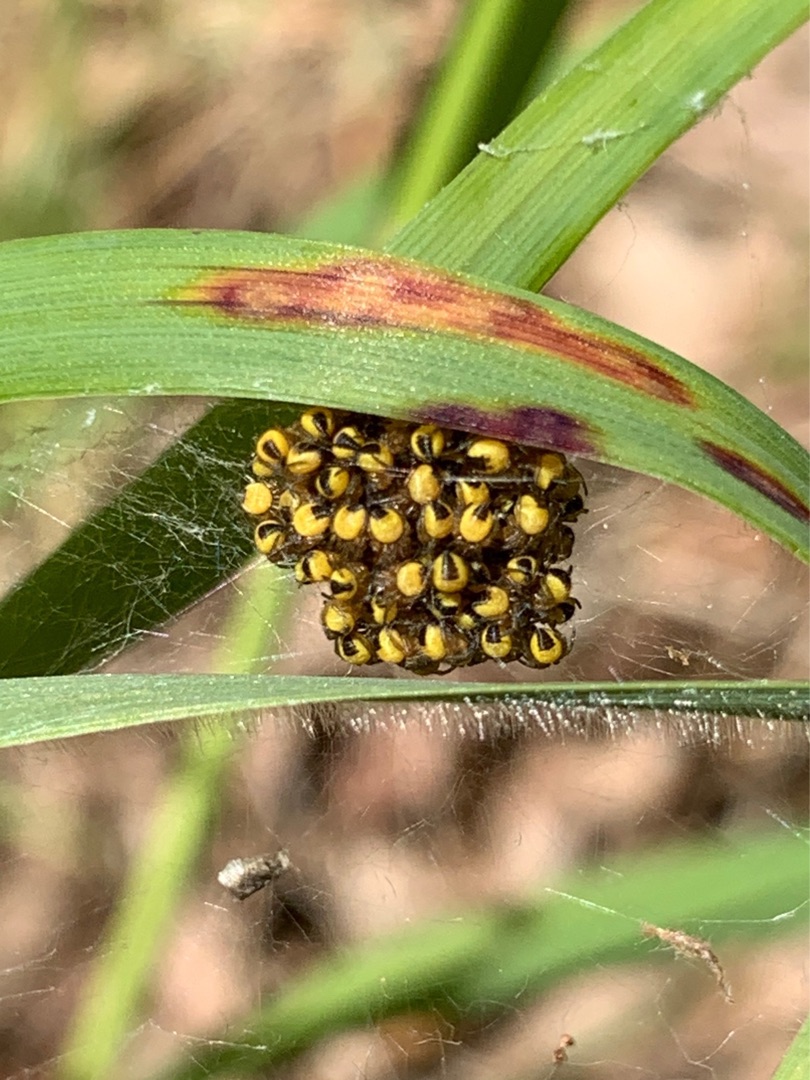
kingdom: Animalia
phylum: Arthropoda
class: Arachnida
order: Araneae
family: Araneidae
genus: Araneus
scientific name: Araneus diadematus
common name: Korsedderkop
